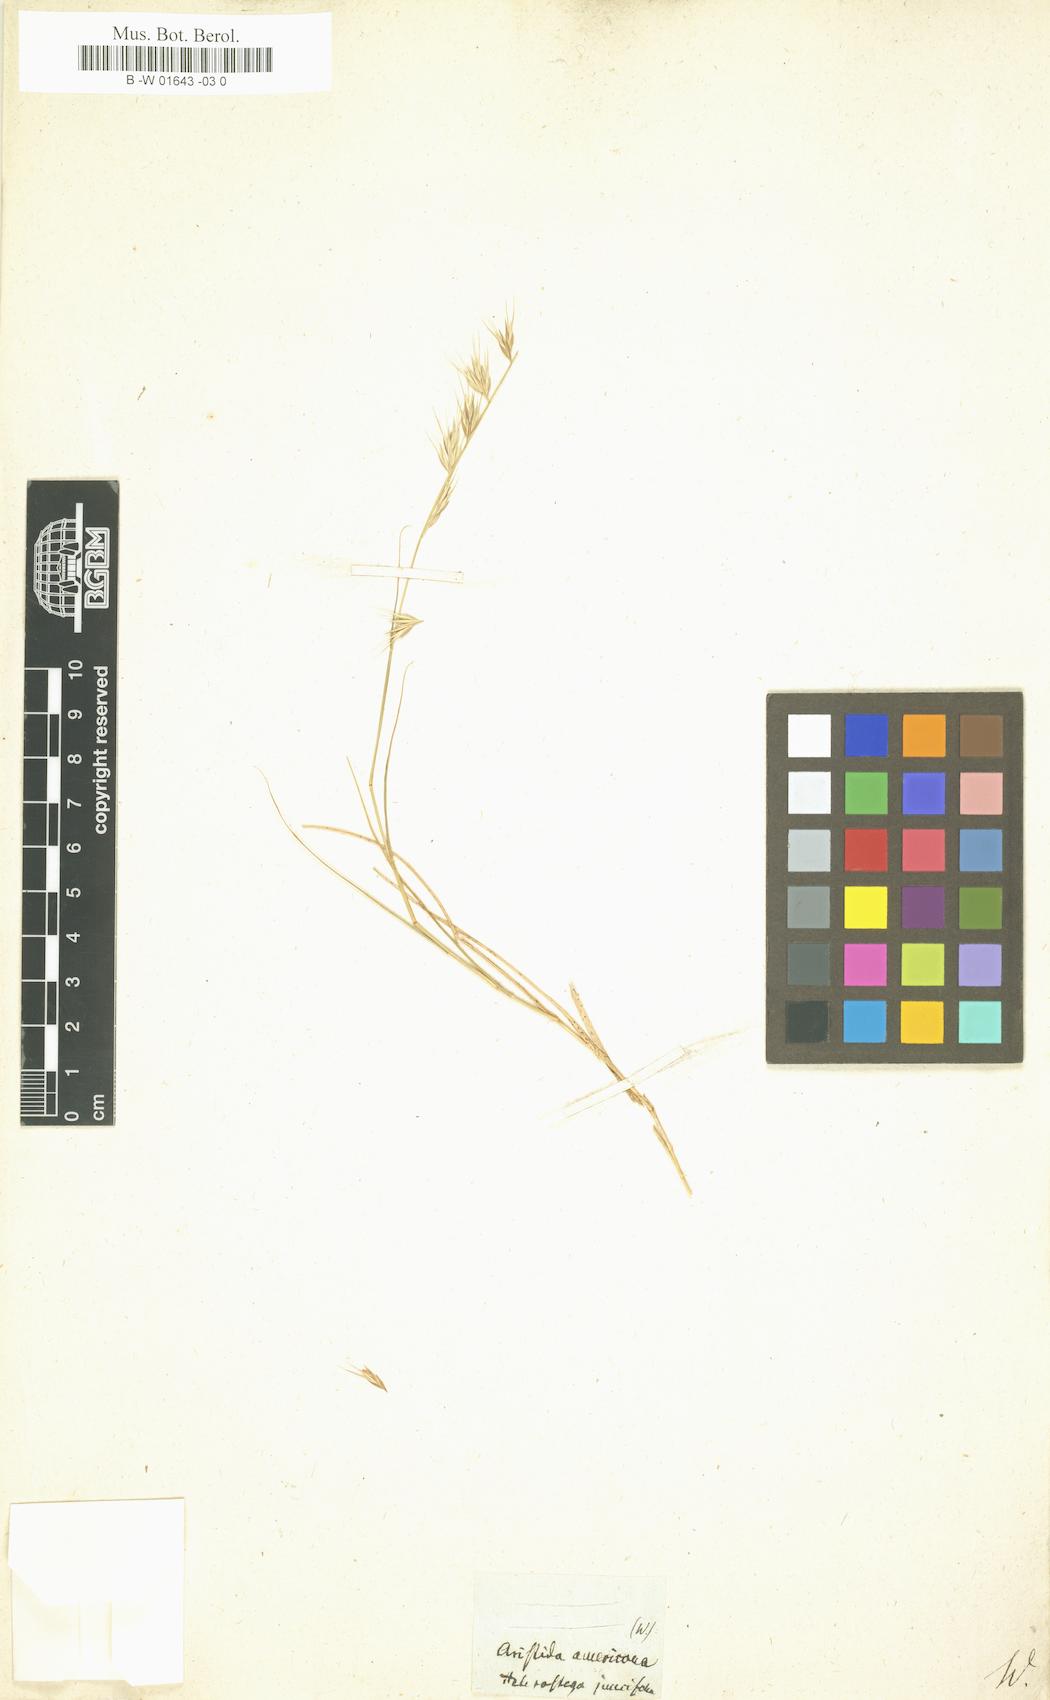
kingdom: Plantae
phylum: Tracheophyta
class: Liliopsida
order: Poales
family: Poaceae
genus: Heterostega
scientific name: Heterostega
